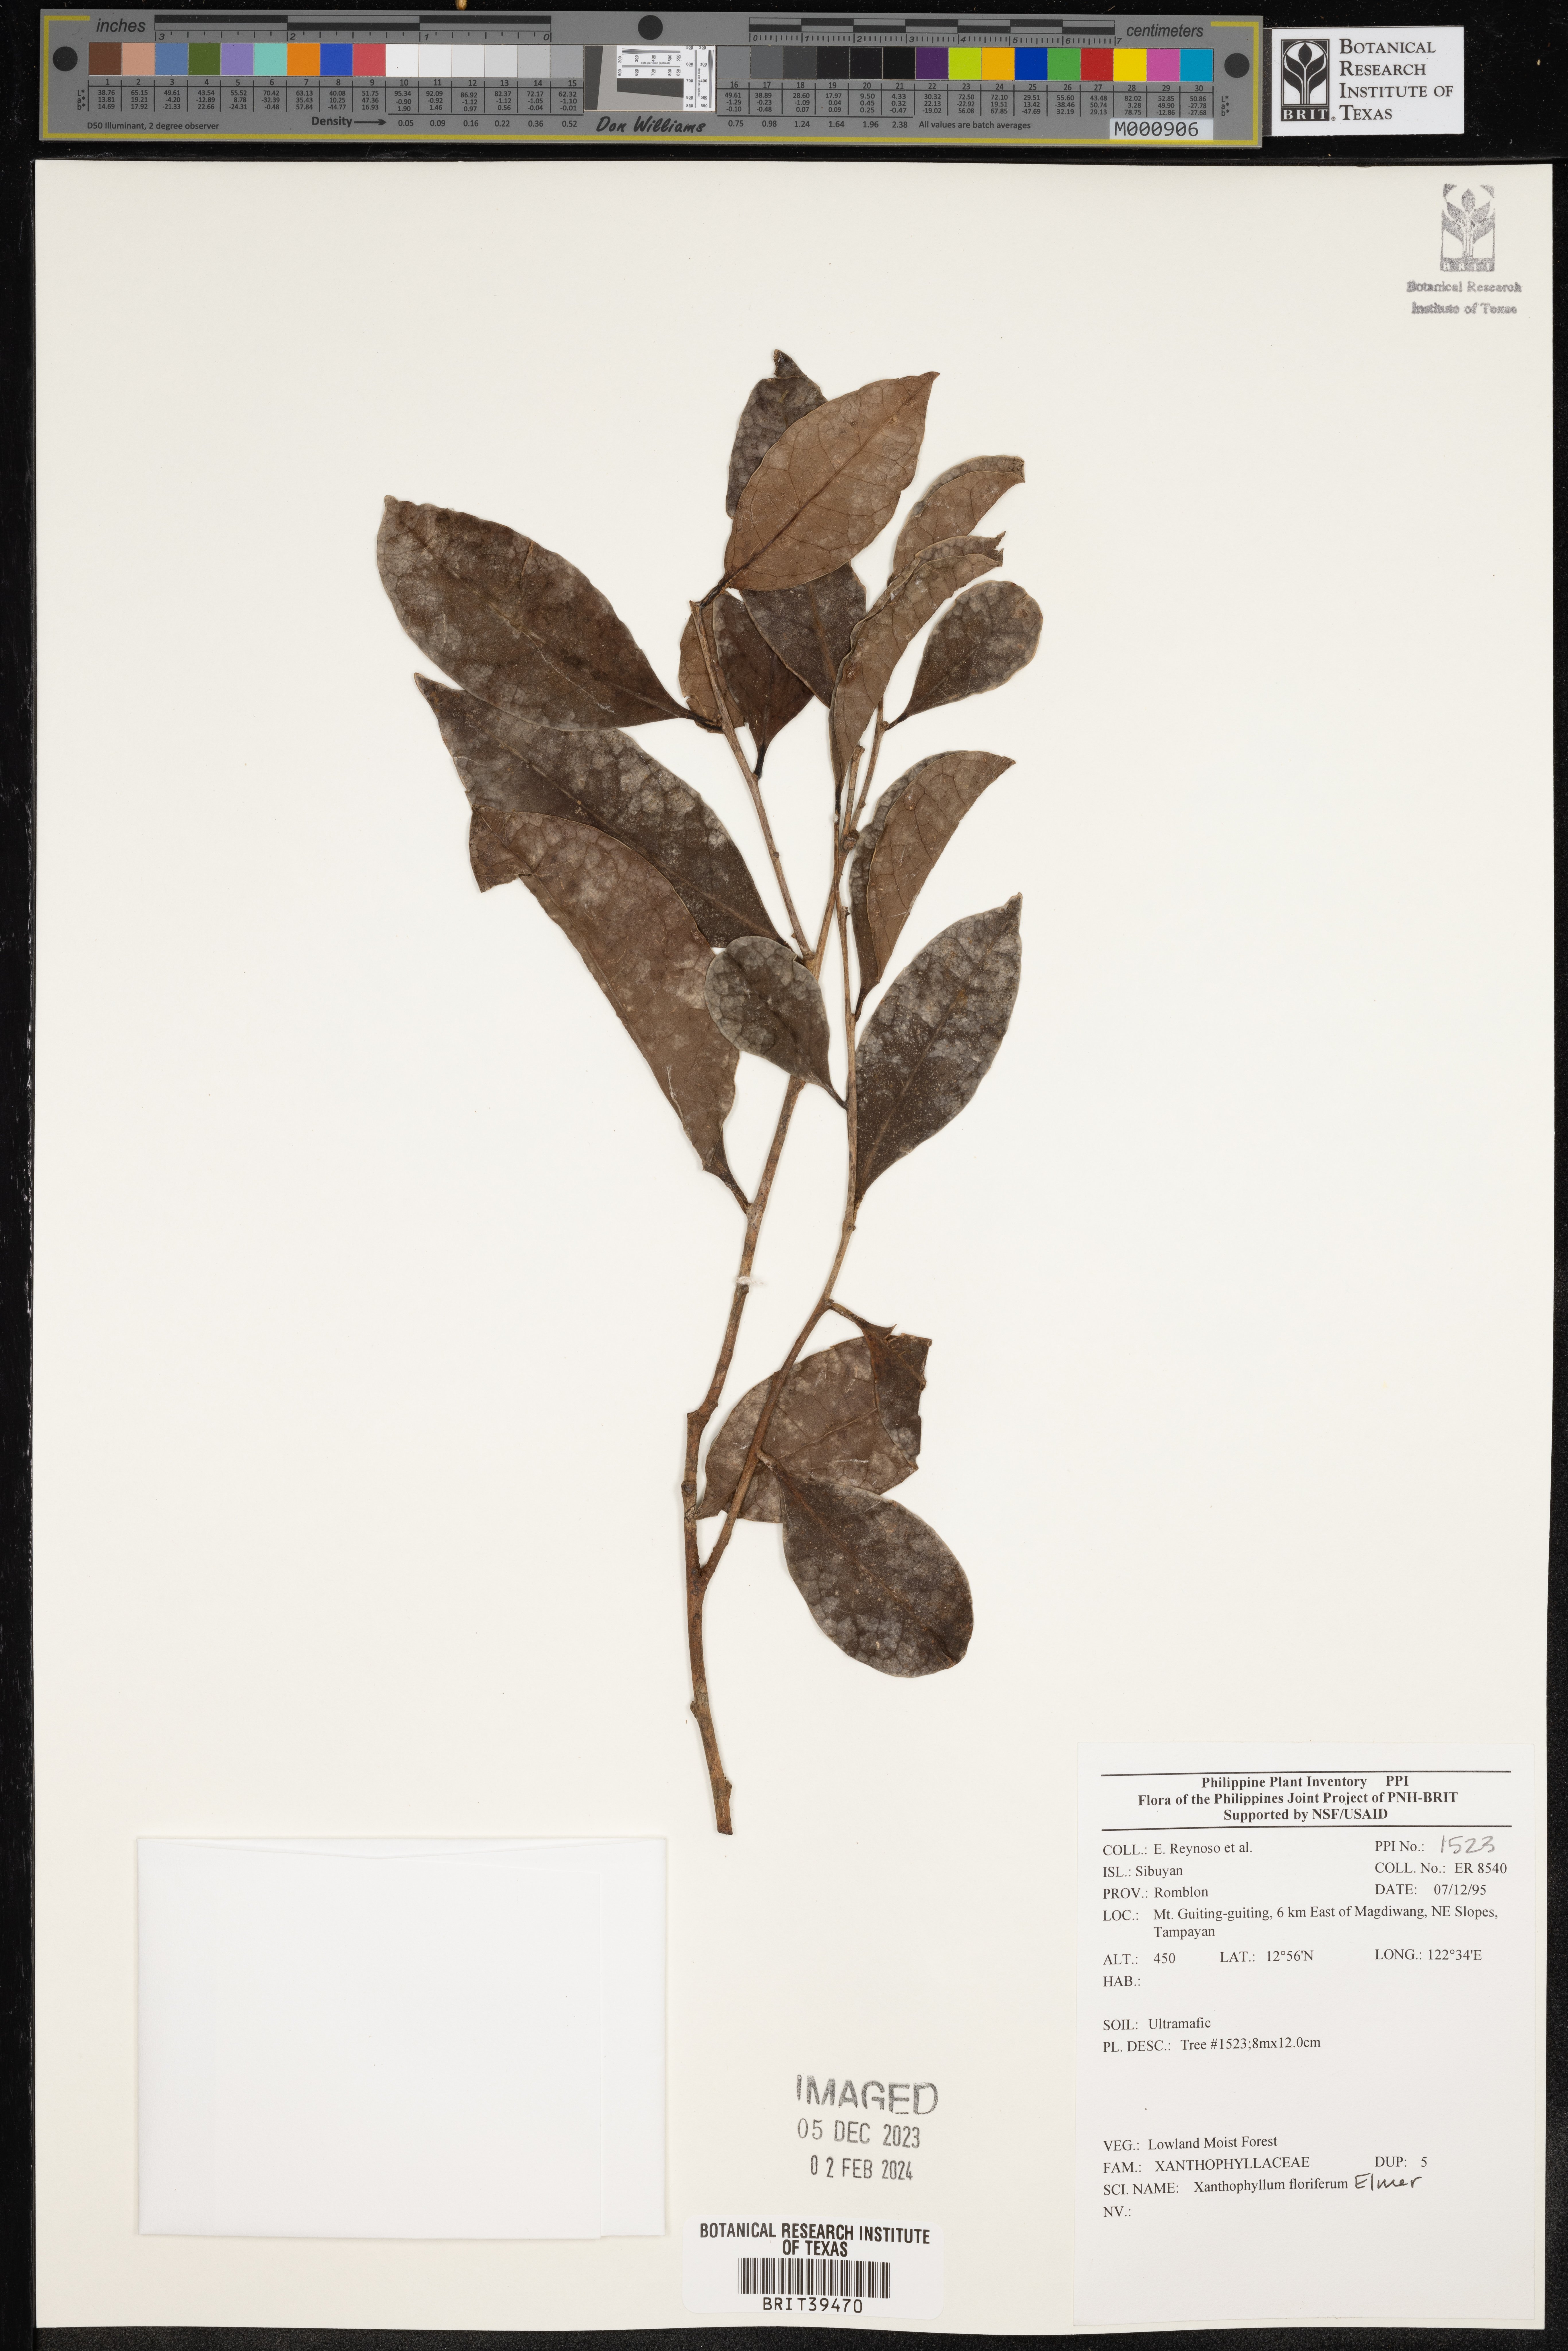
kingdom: Plantae
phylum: Tracheophyta
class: Magnoliopsida
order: Fabales
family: Polygalaceae
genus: Xanthophyllum
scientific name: Xanthophyllum flavescens
